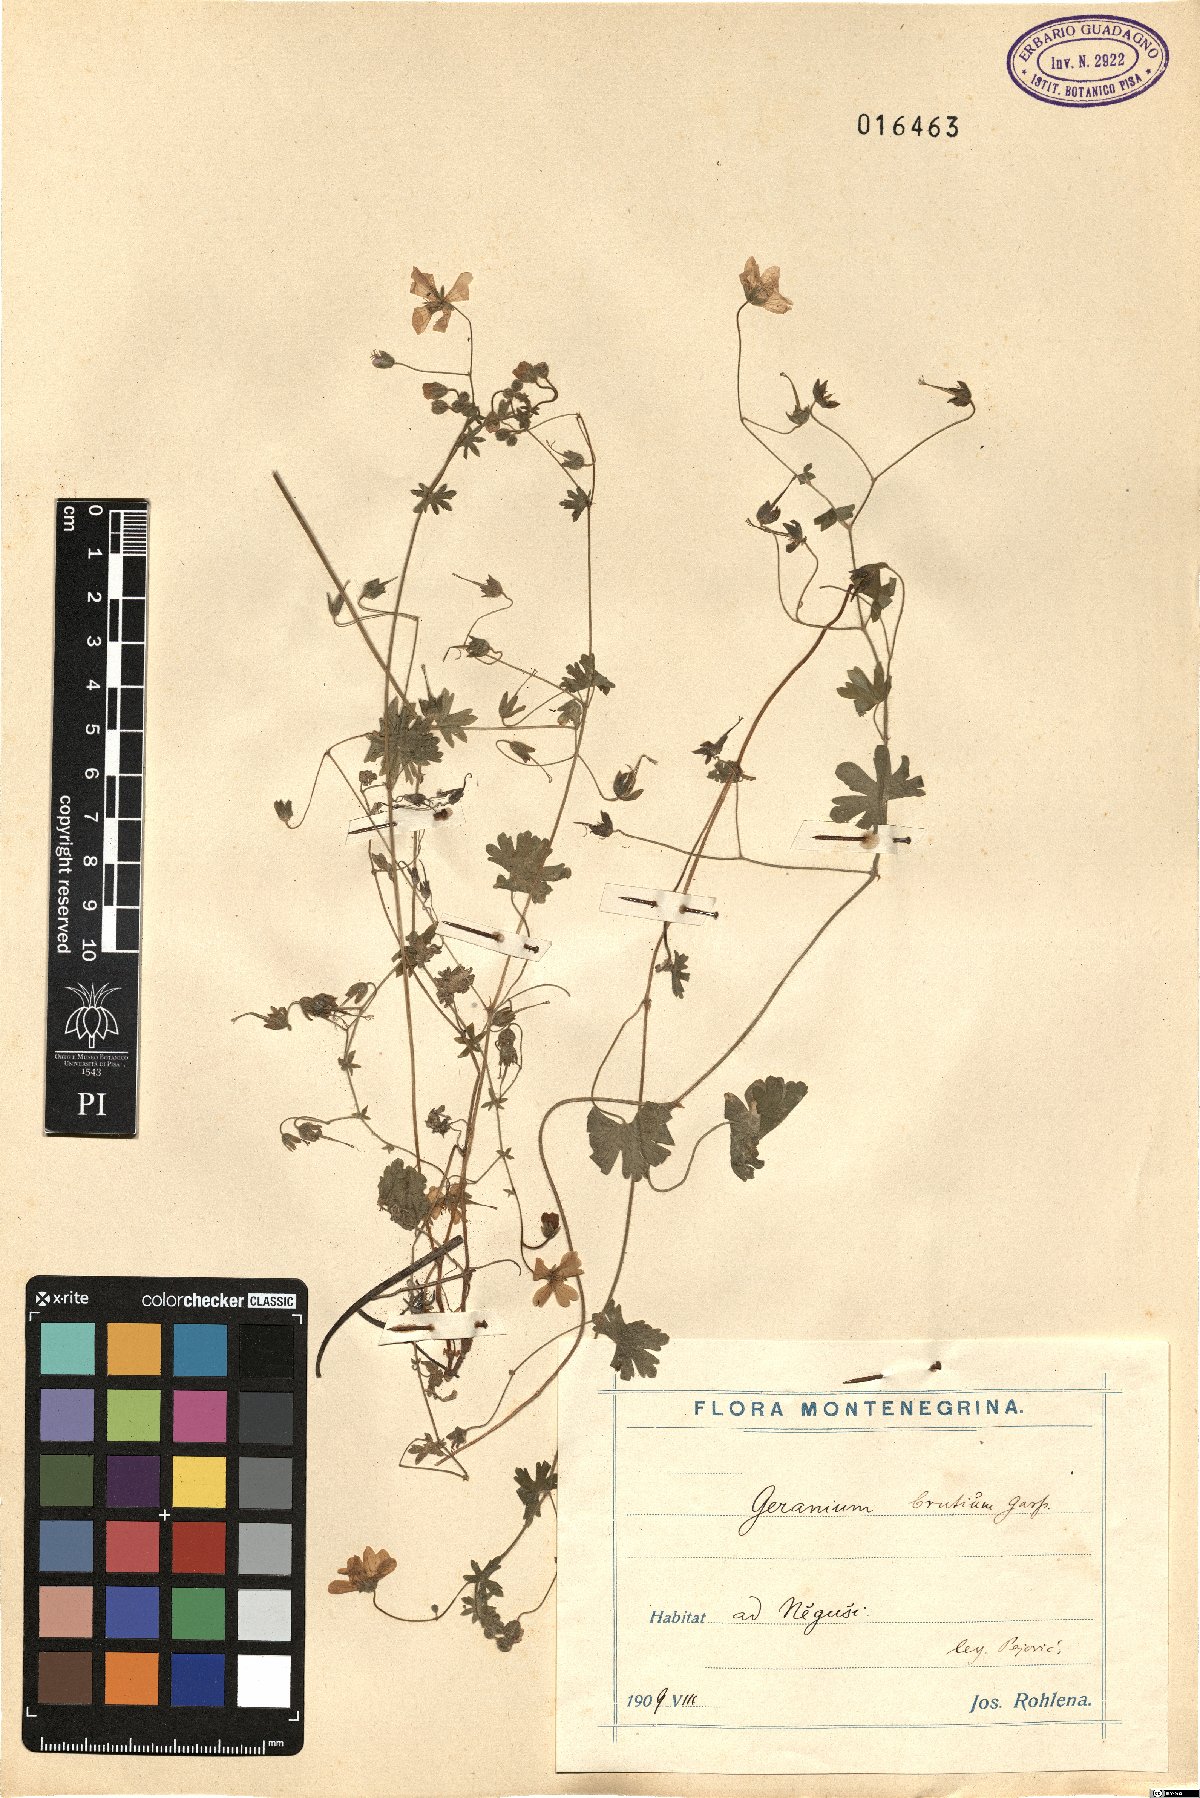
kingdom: Plantae
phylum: Tracheophyta
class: Magnoliopsida
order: Geraniales
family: Geraniaceae
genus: Geranium
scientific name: Geranium molle
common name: Dove's-foot crane's-bill
